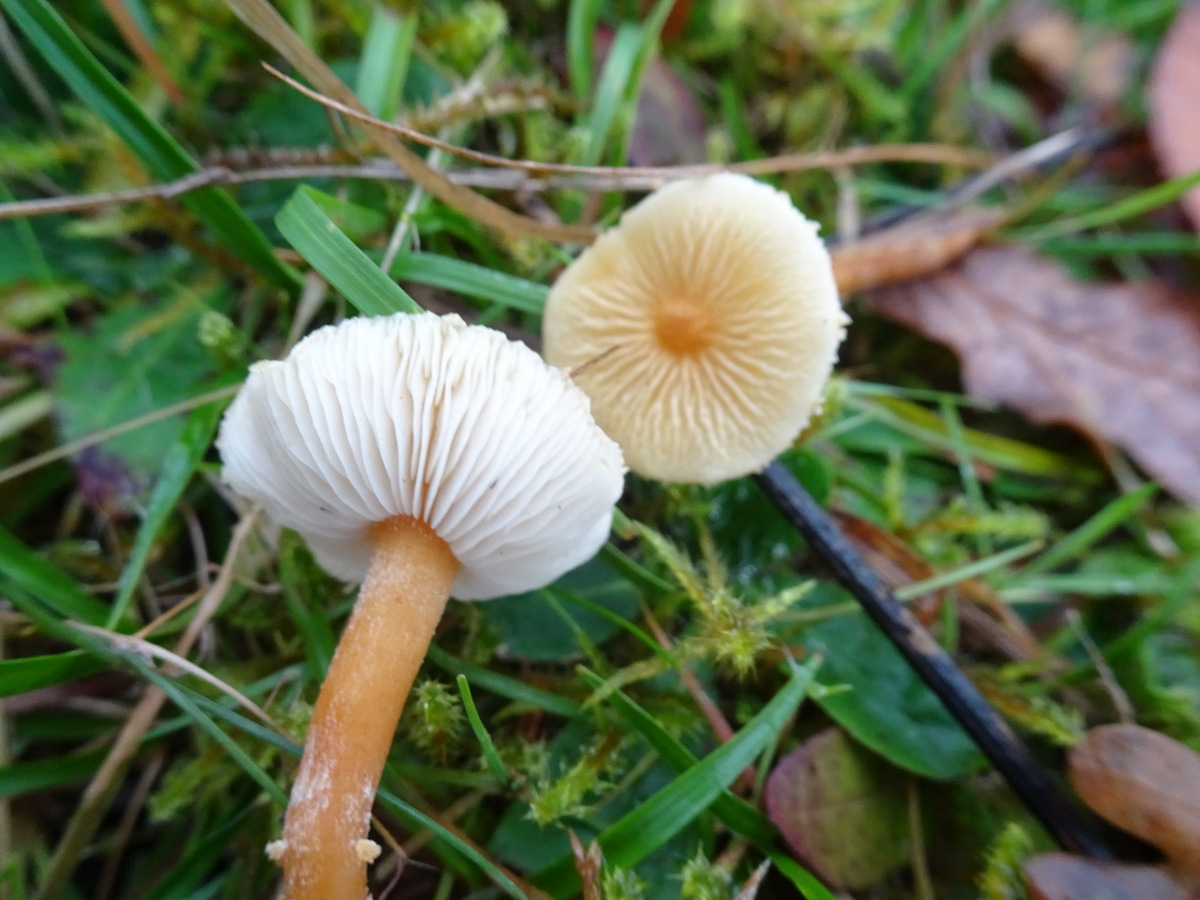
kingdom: Fungi
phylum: Basidiomycota
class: Agaricomycetes
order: Agaricales
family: Tricholomataceae
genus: Cystoderma
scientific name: Cystoderma amianthinum
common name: okkergul grynhat
